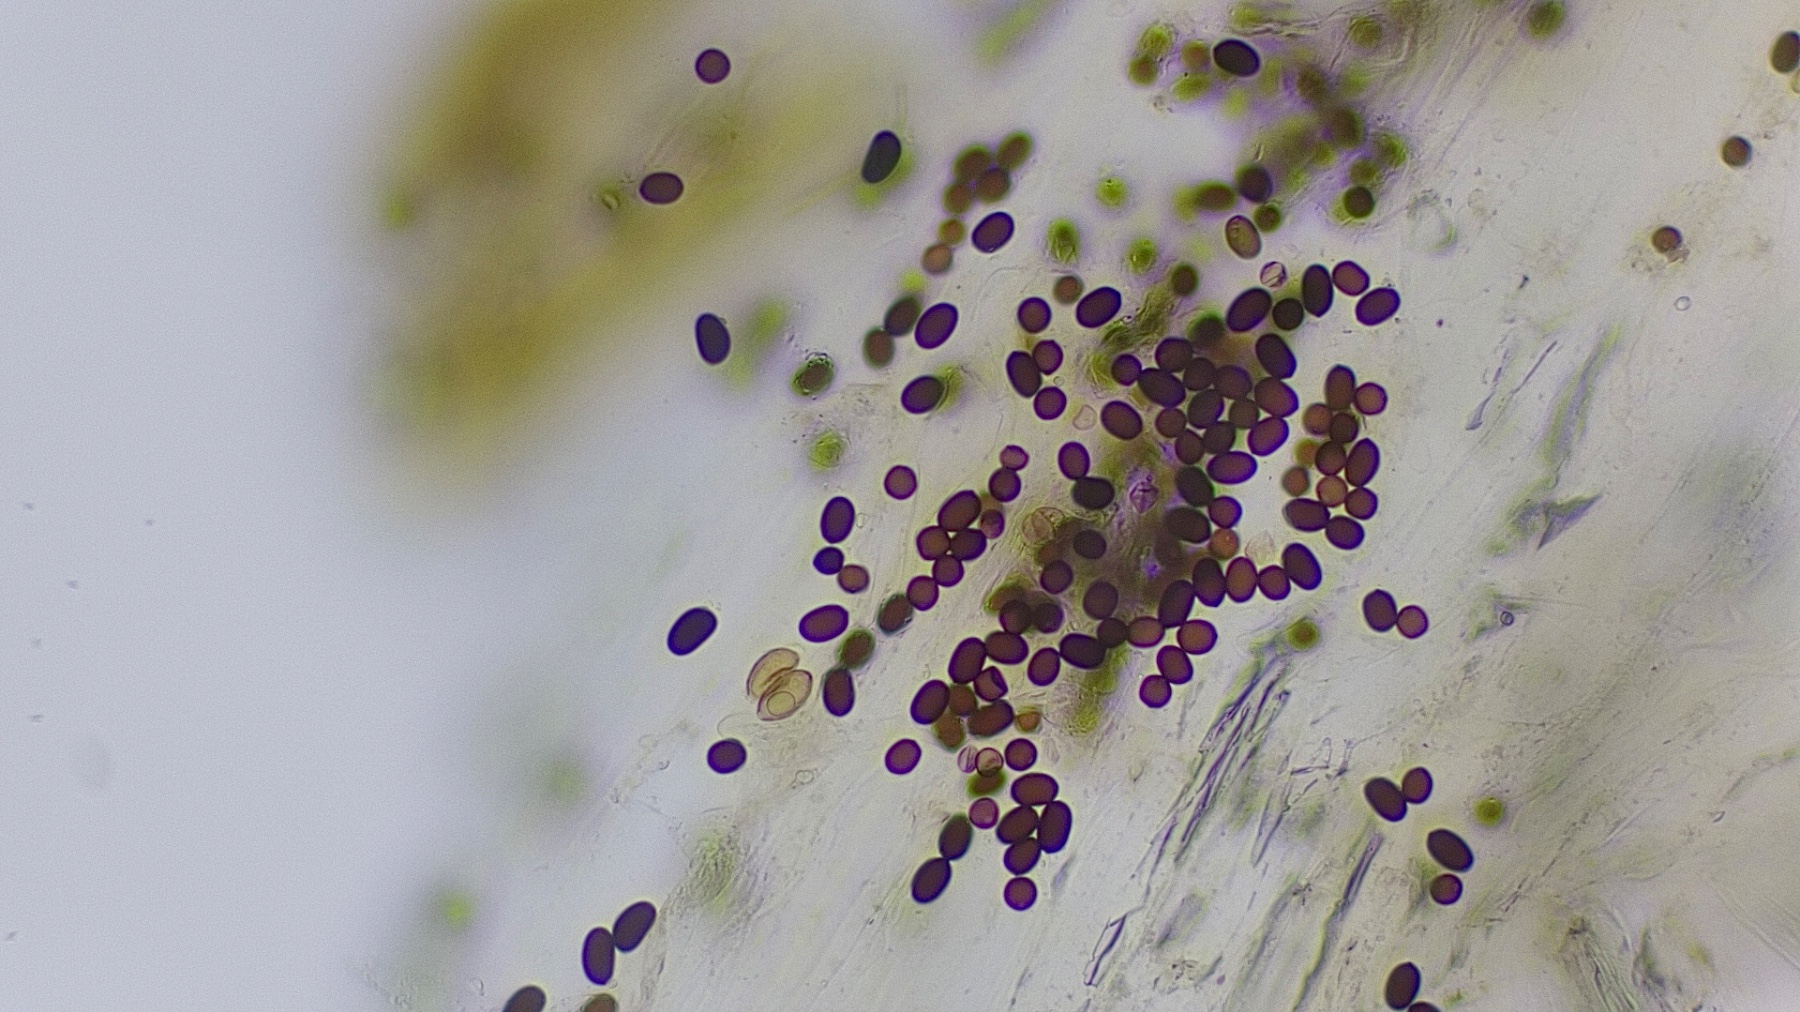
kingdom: Fungi
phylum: Basidiomycota
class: Agaricomycetes
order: Agaricales
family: Psathyrellaceae
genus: Coprinopsis
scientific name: Coprinopsis
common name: blækhat
